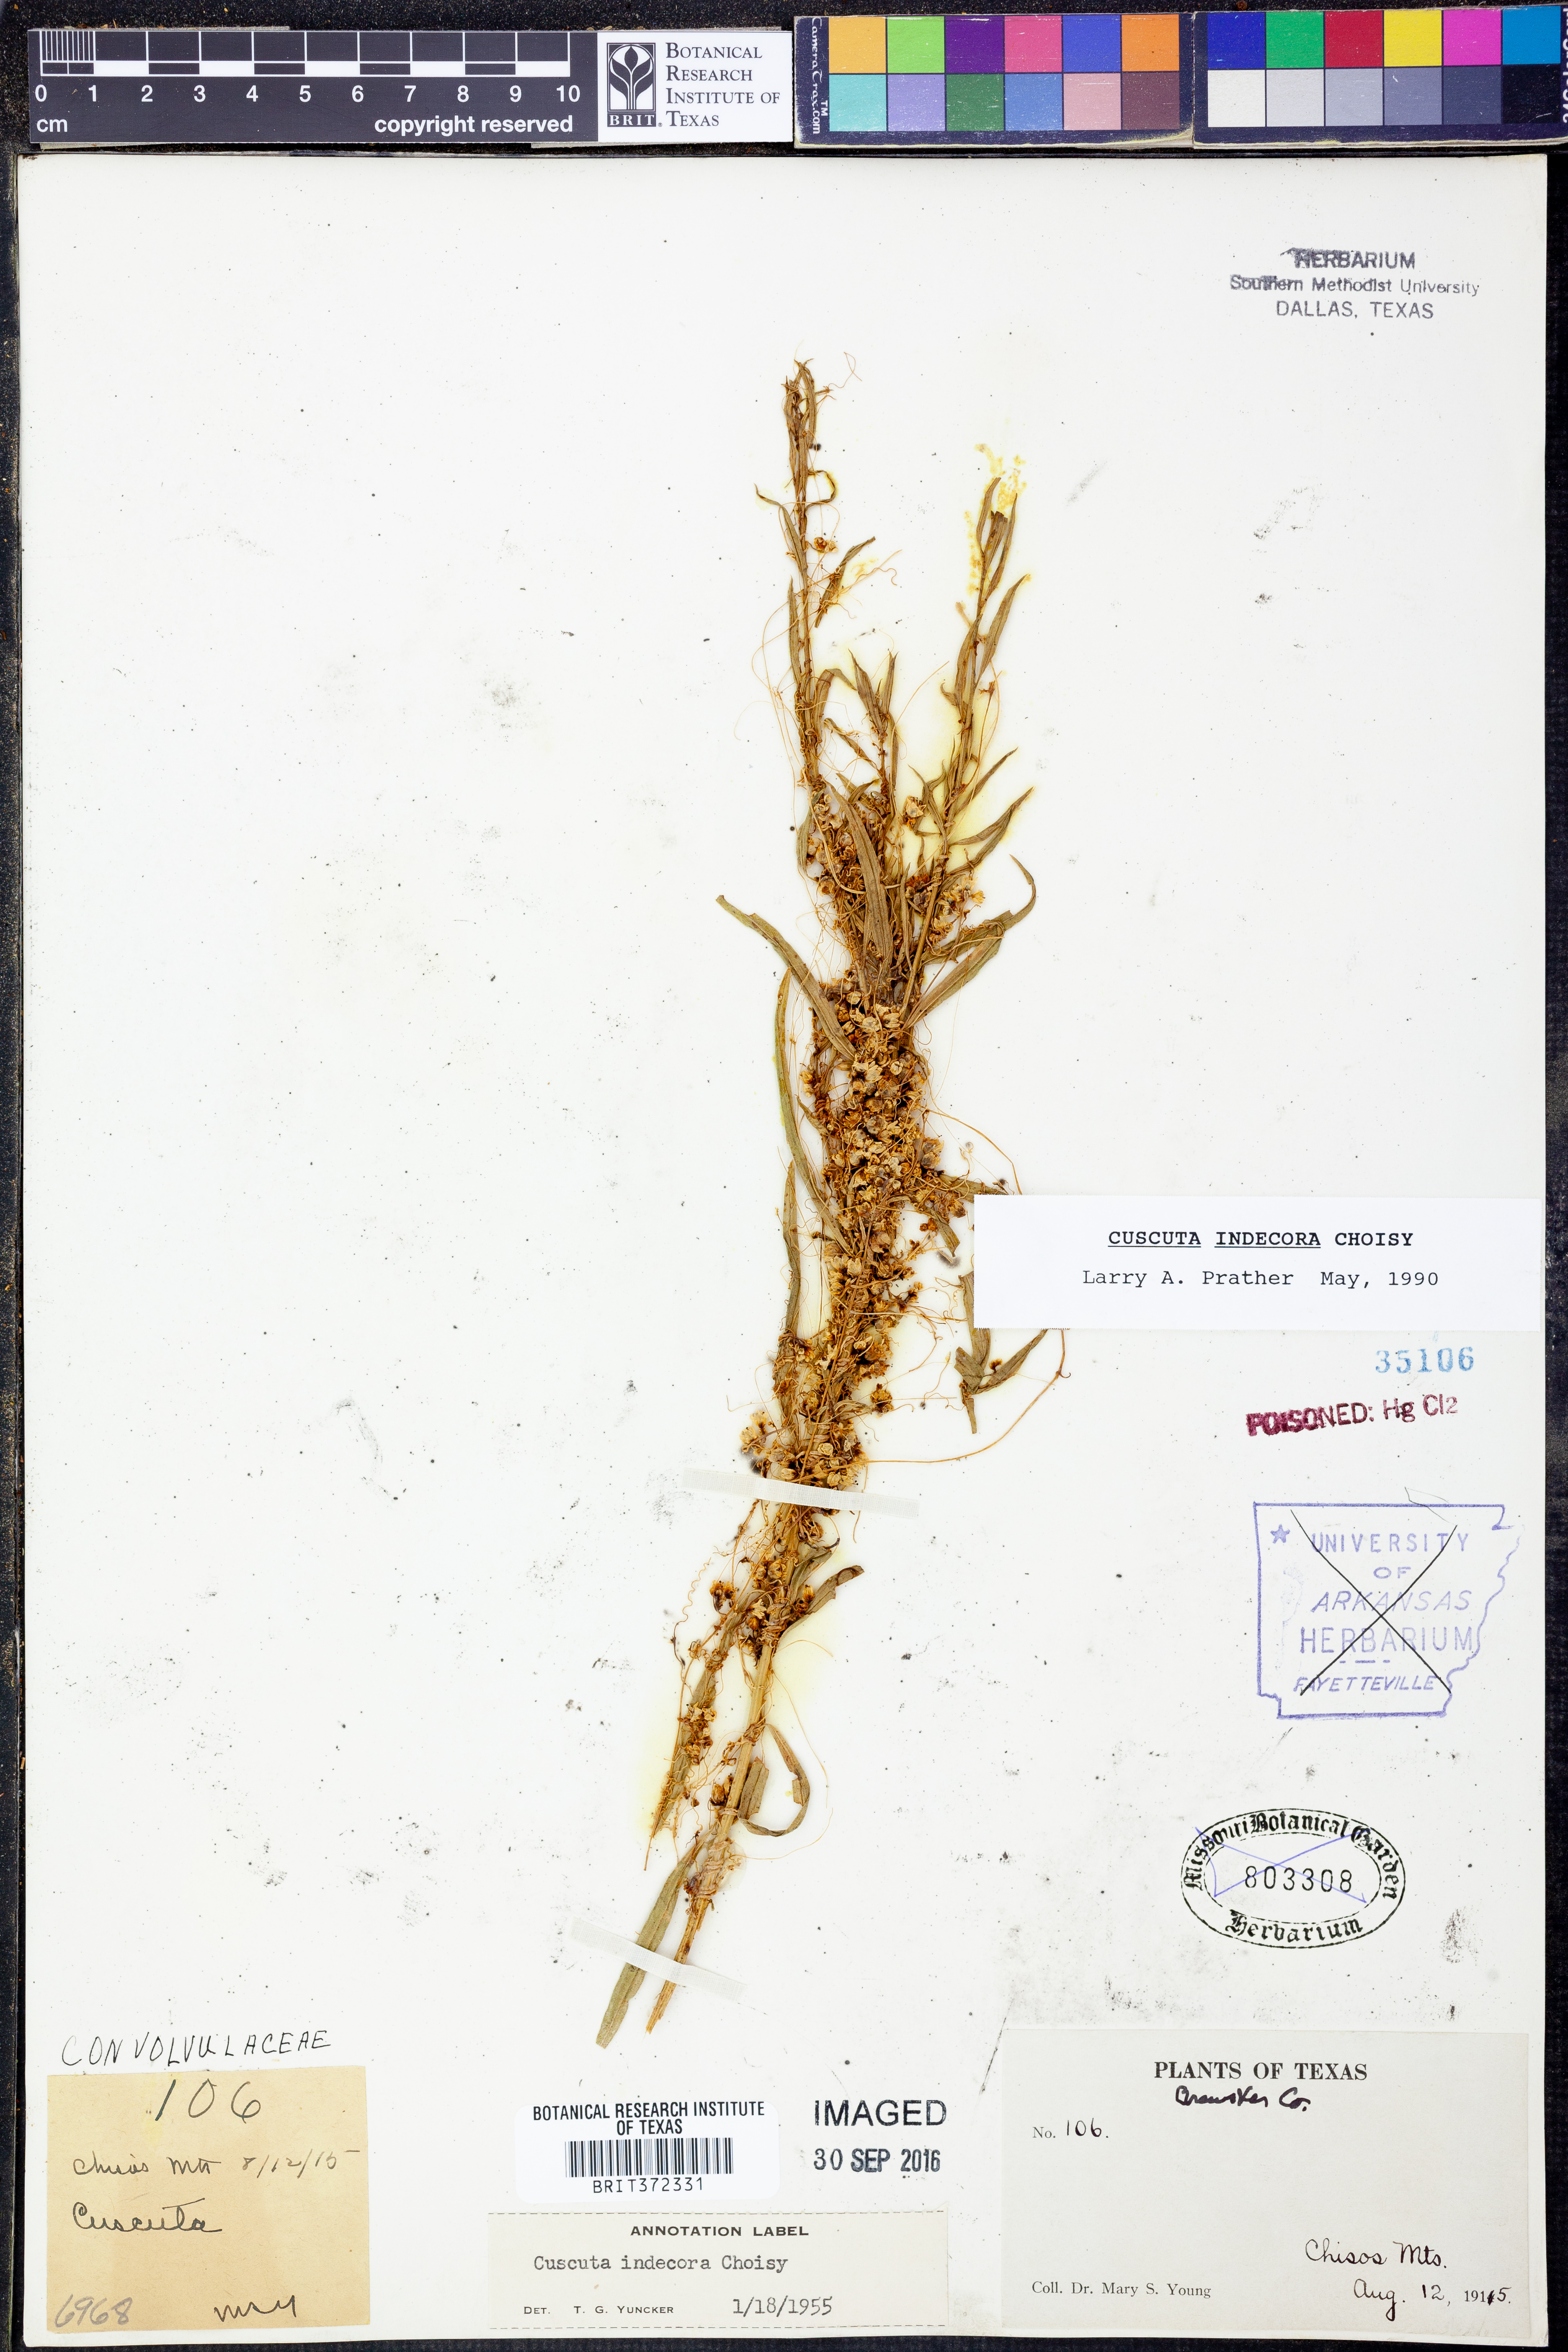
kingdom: Plantae
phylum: Tracheophyta
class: Magnoliopsida
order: Solanales
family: Convolvulaceae
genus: Cuscuta
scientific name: Cuscuta indecora
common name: Large-seed dodder
